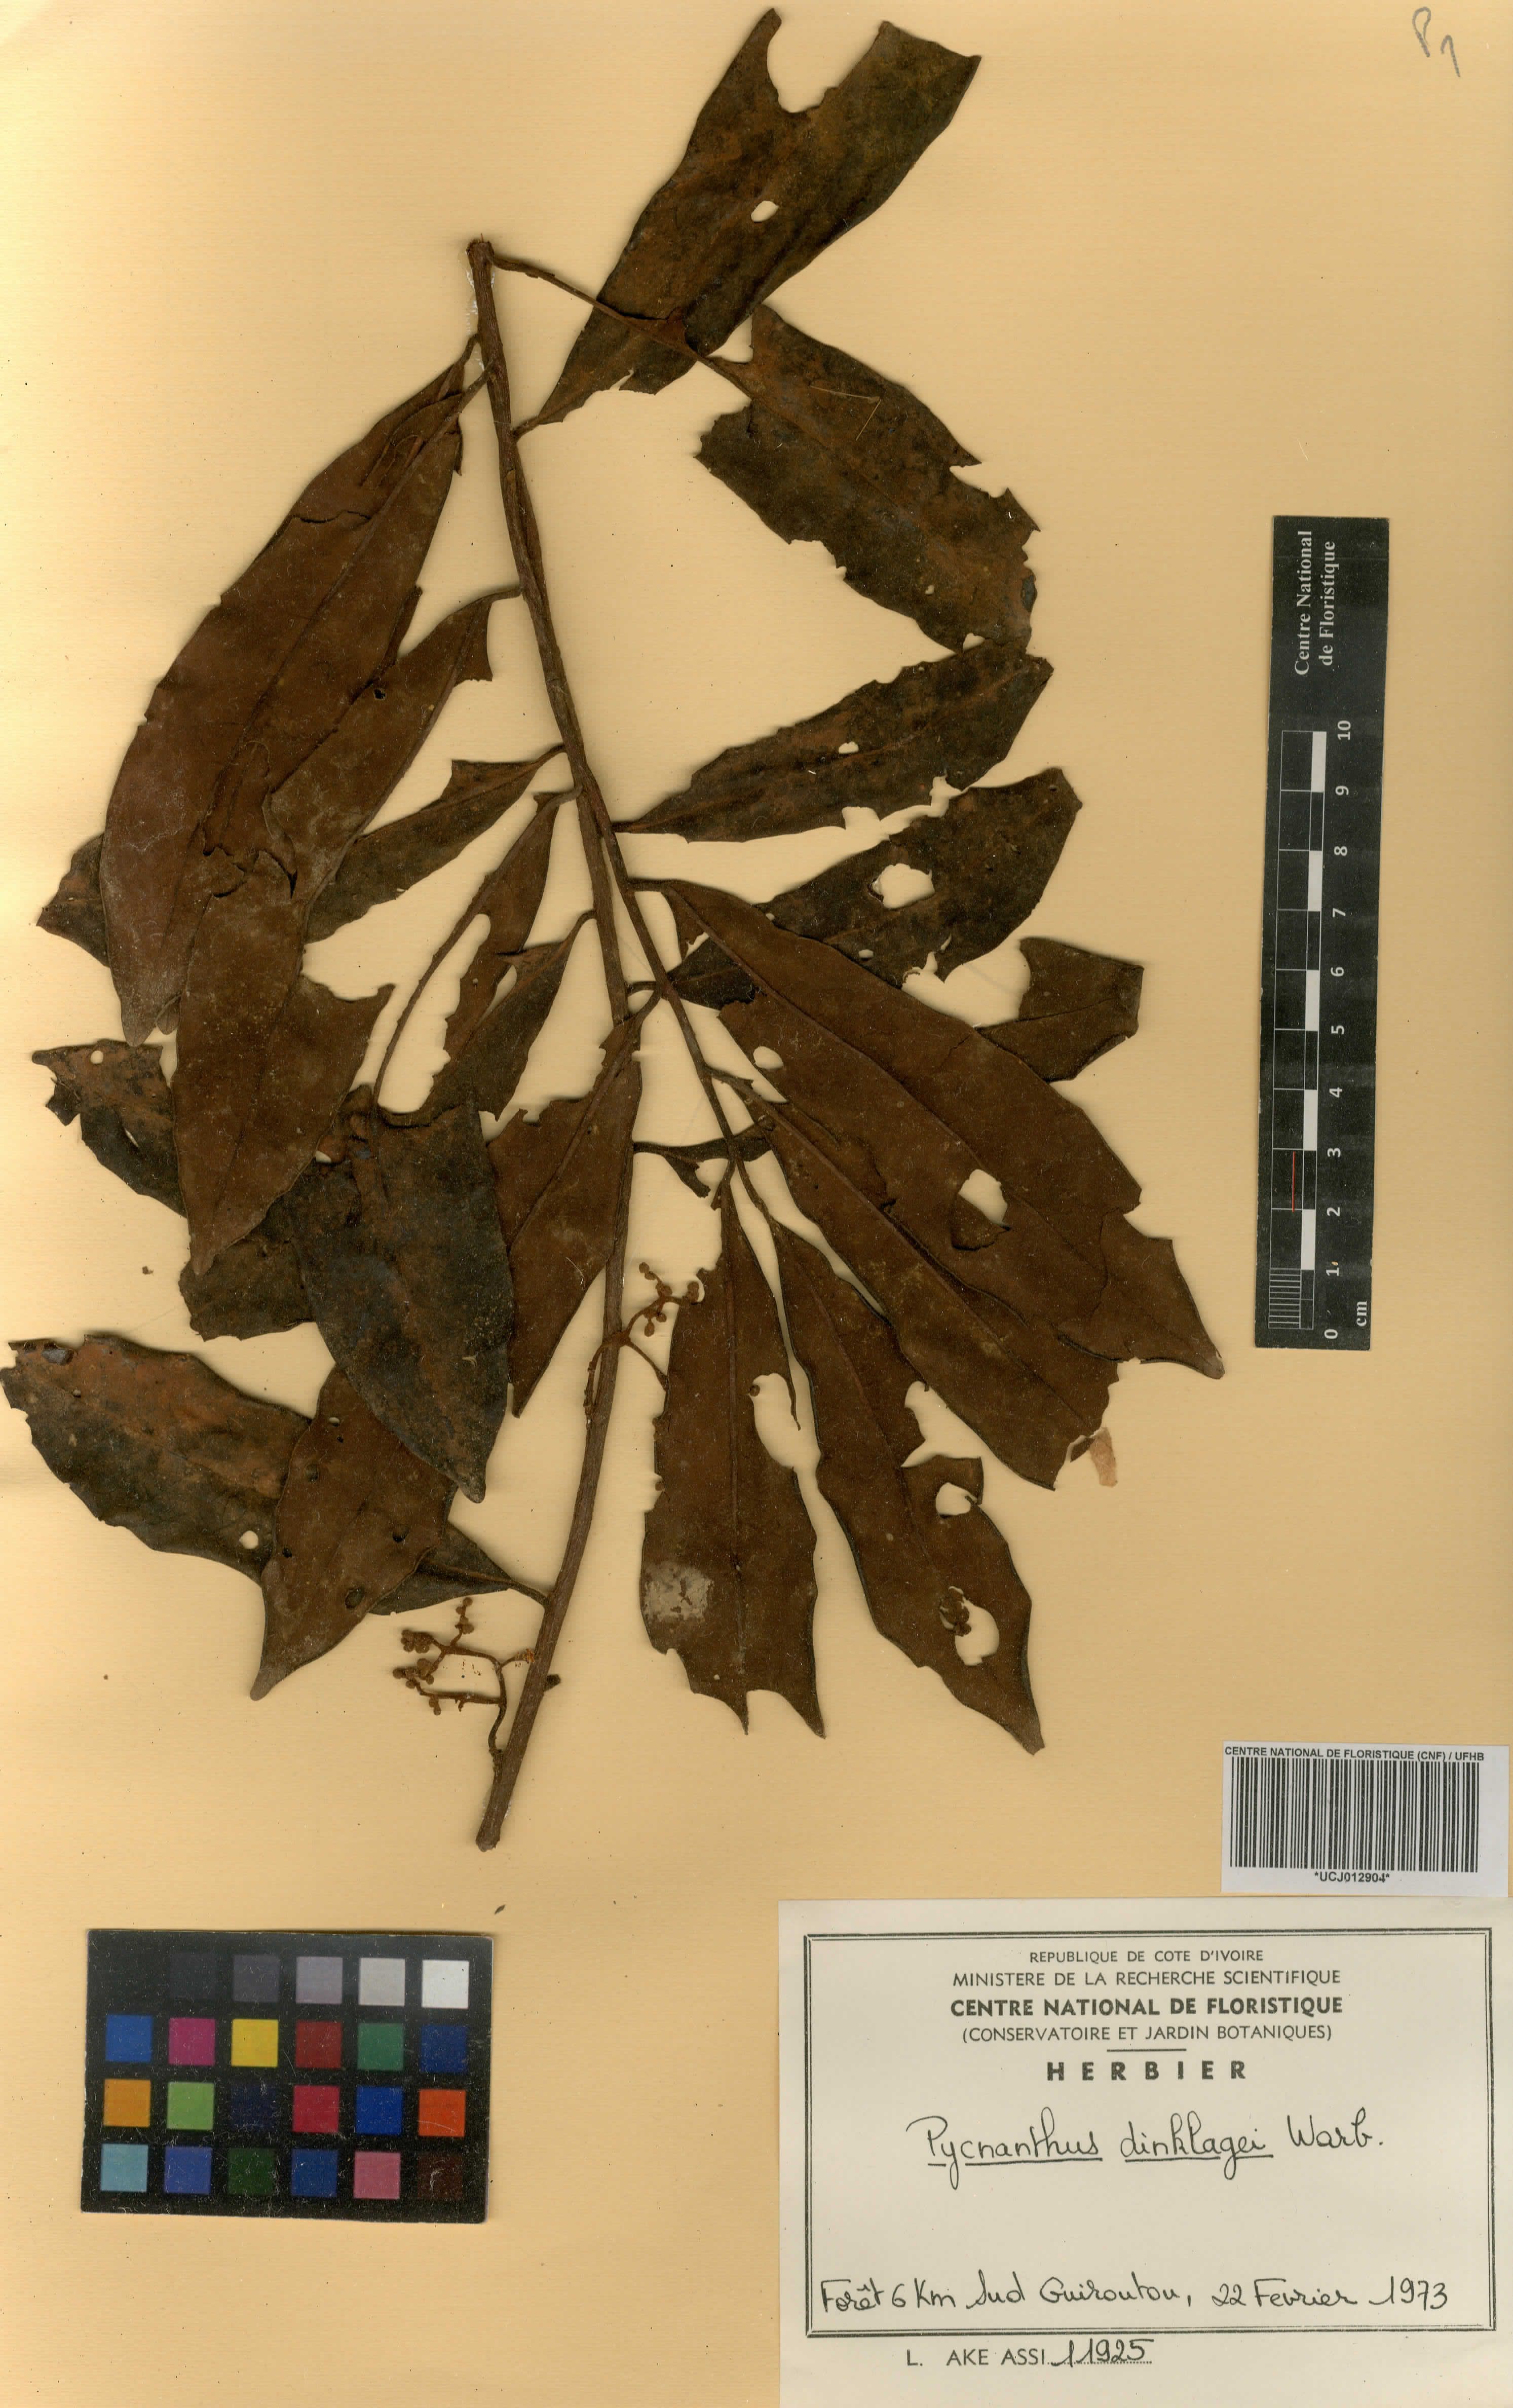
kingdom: Plantae
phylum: Tracheophyta
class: Magnoliopsida
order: Magnoliales
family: Myristicaceae
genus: Pycnanthus
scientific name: Pycnanthus dinklagei
